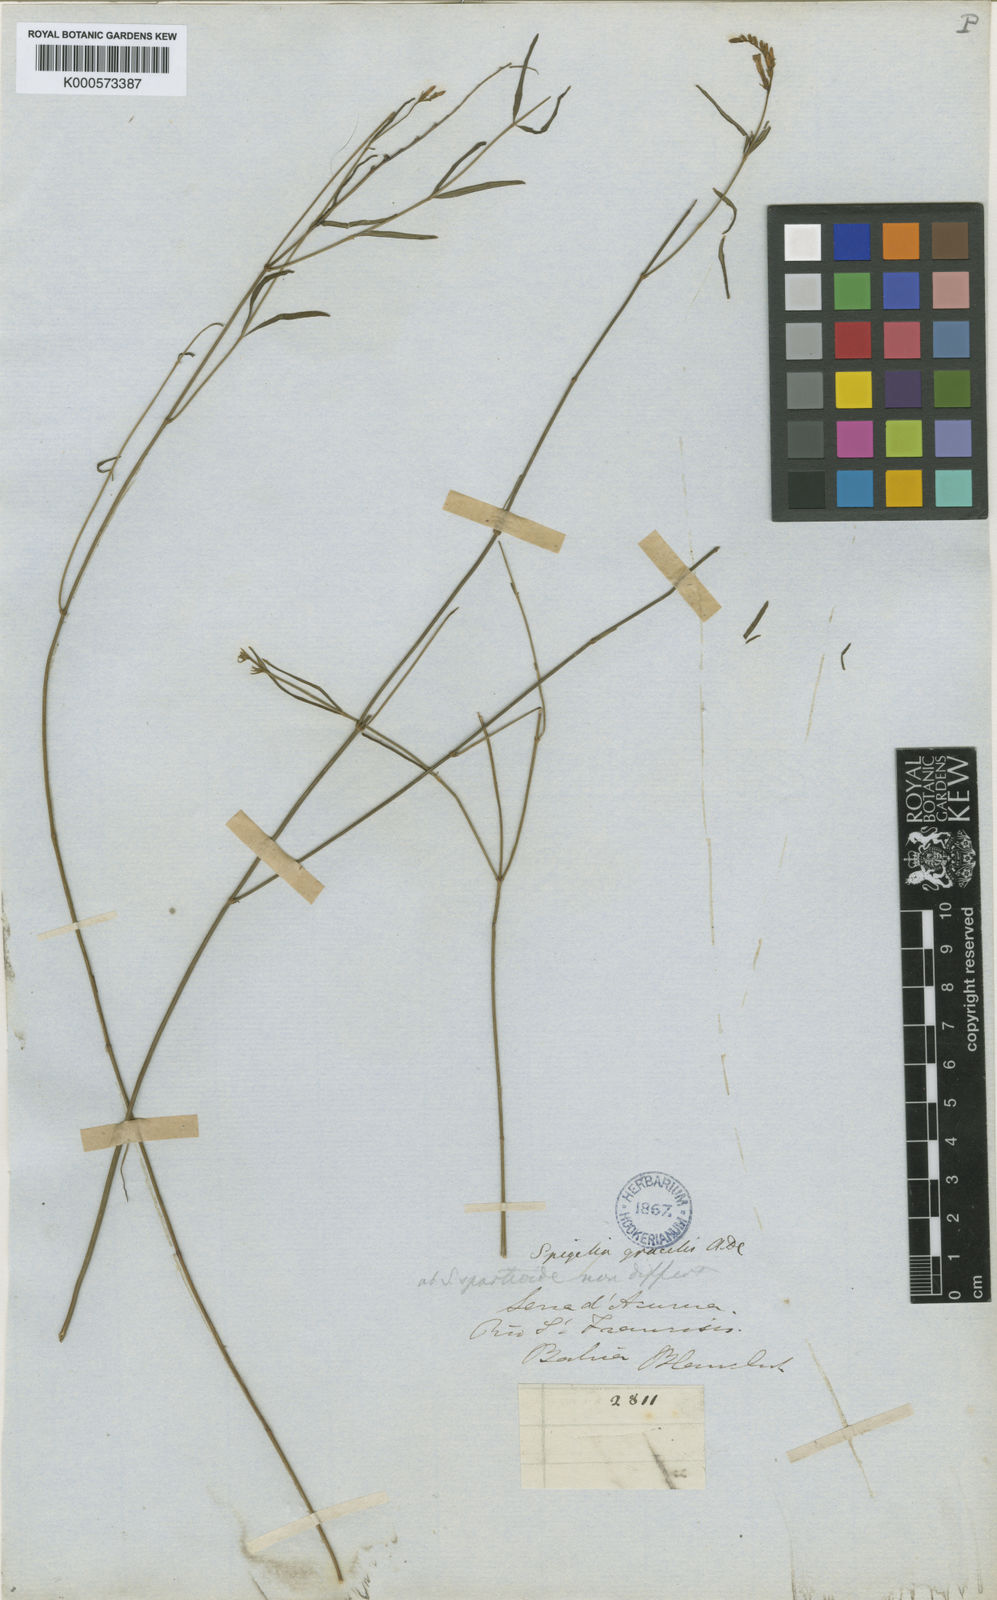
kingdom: Plantae
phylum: Tracheophyta
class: Magnoliopsida
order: Gentianales
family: Loganiaceae
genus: Spigelia
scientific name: Spigelia
